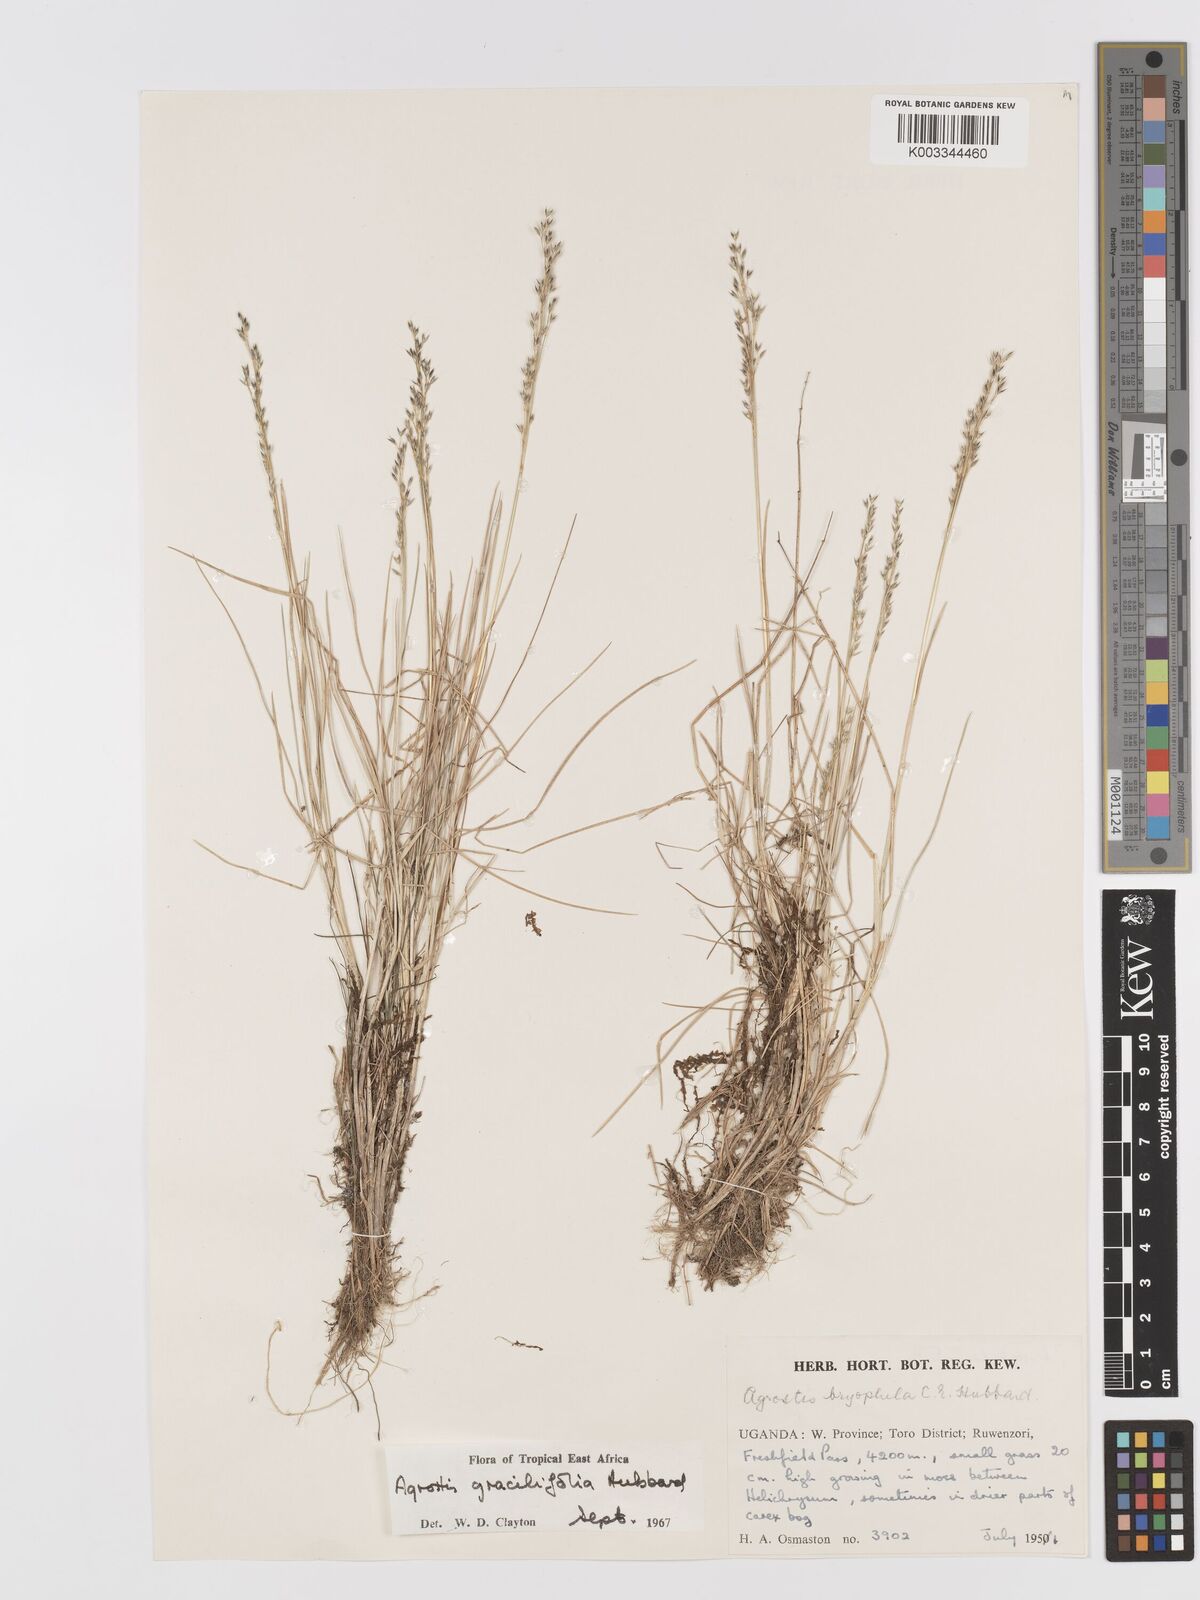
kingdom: Plantae
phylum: Tracheophyta
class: Liliopsida
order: Poales
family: Poaceae
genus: Agrostis
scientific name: Agrostis gracilifolia
